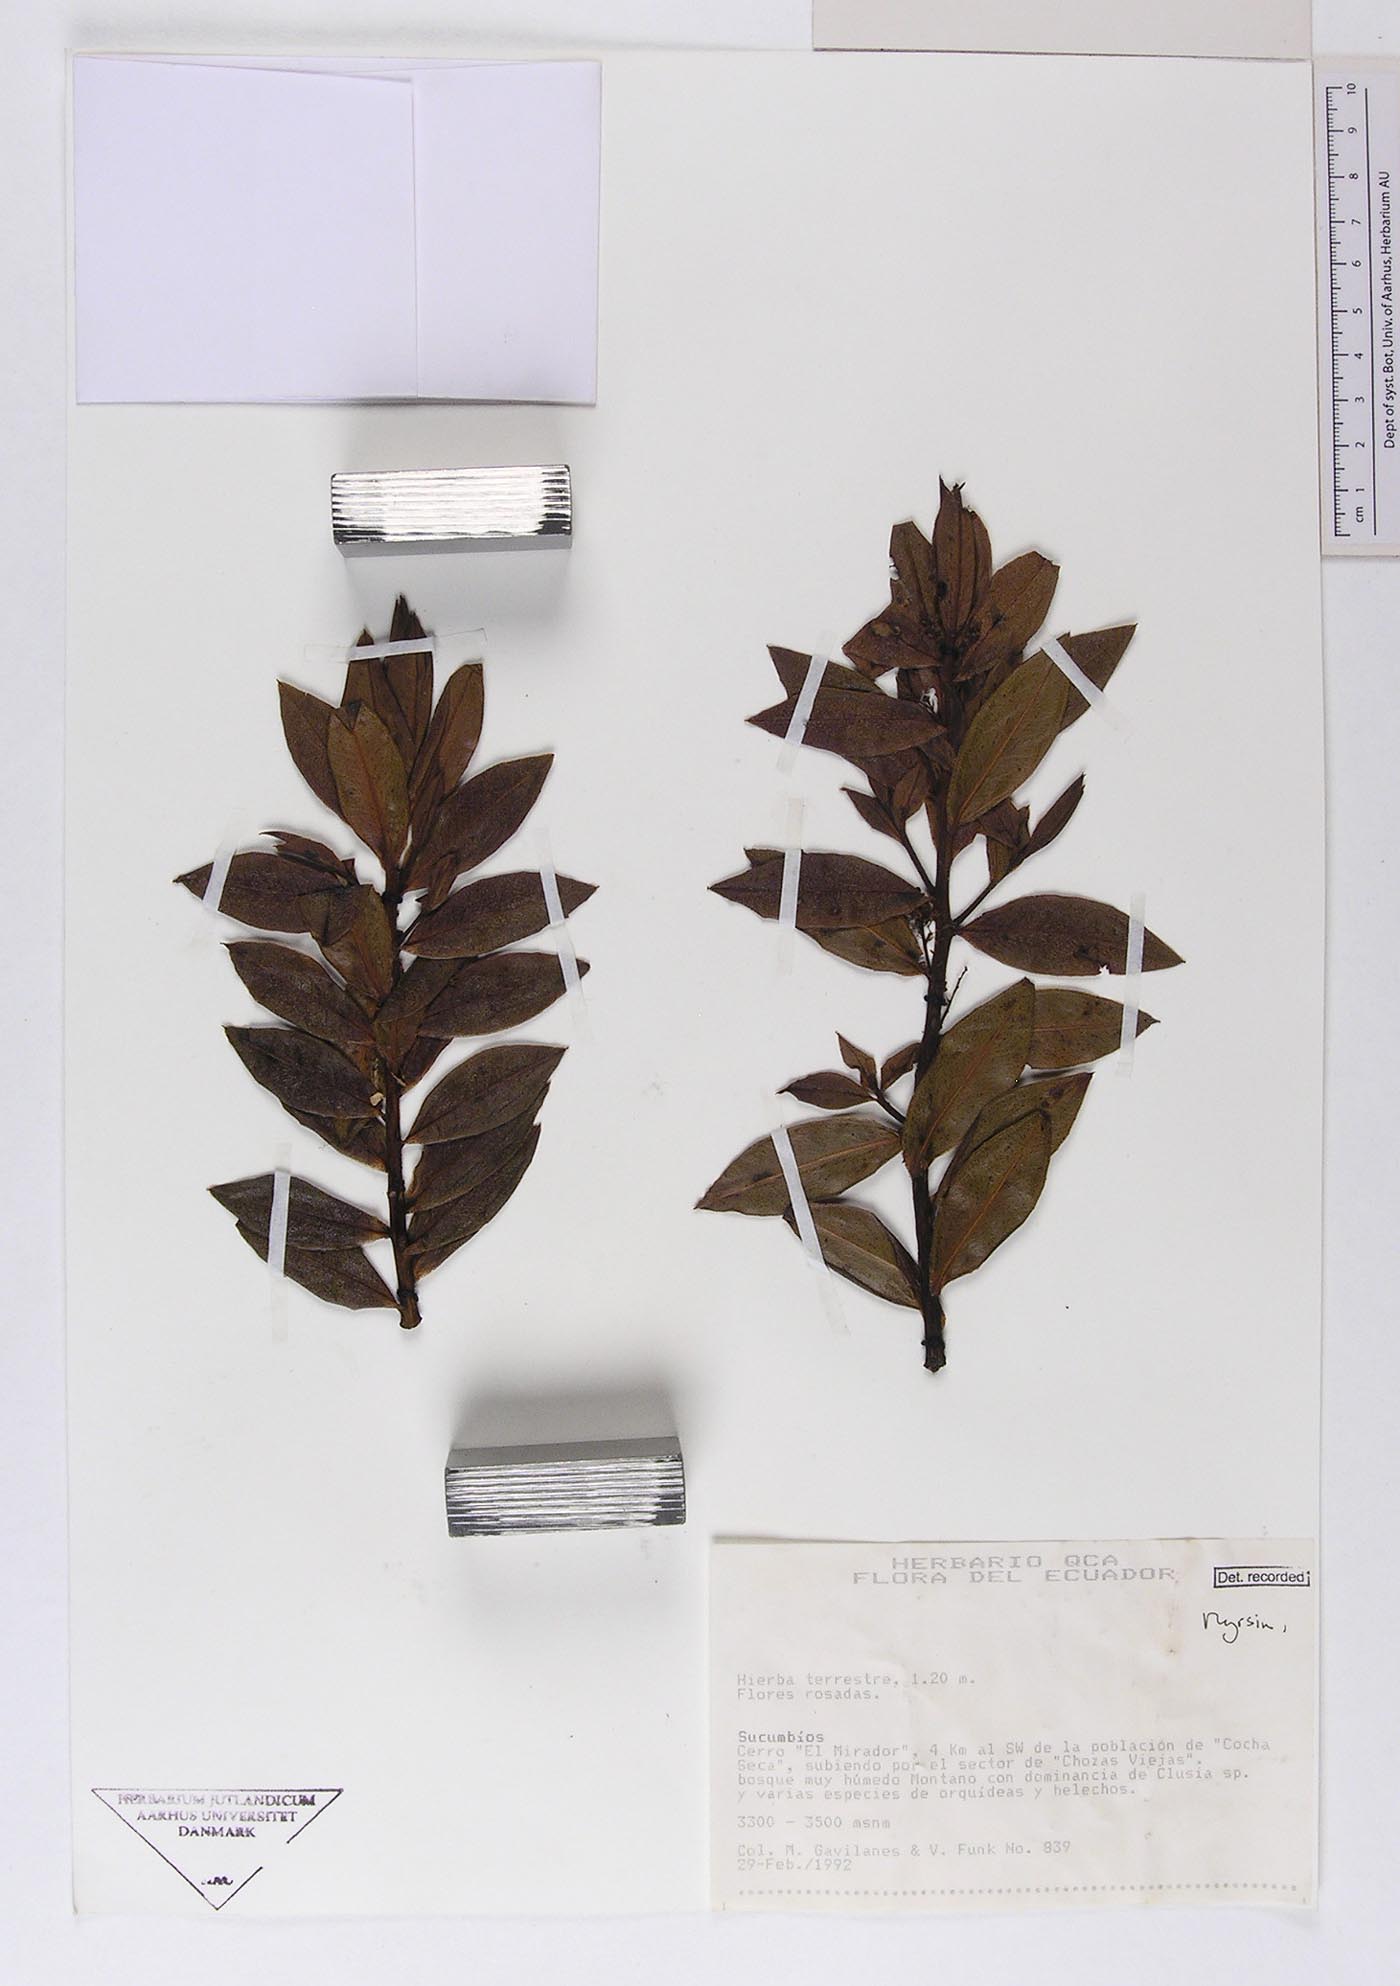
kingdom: Plantae
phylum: Tracheophyta
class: Magnoliopsida
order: Ericales
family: Primulaceae
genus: Cybianthus
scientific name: Cybianthus marginatus
